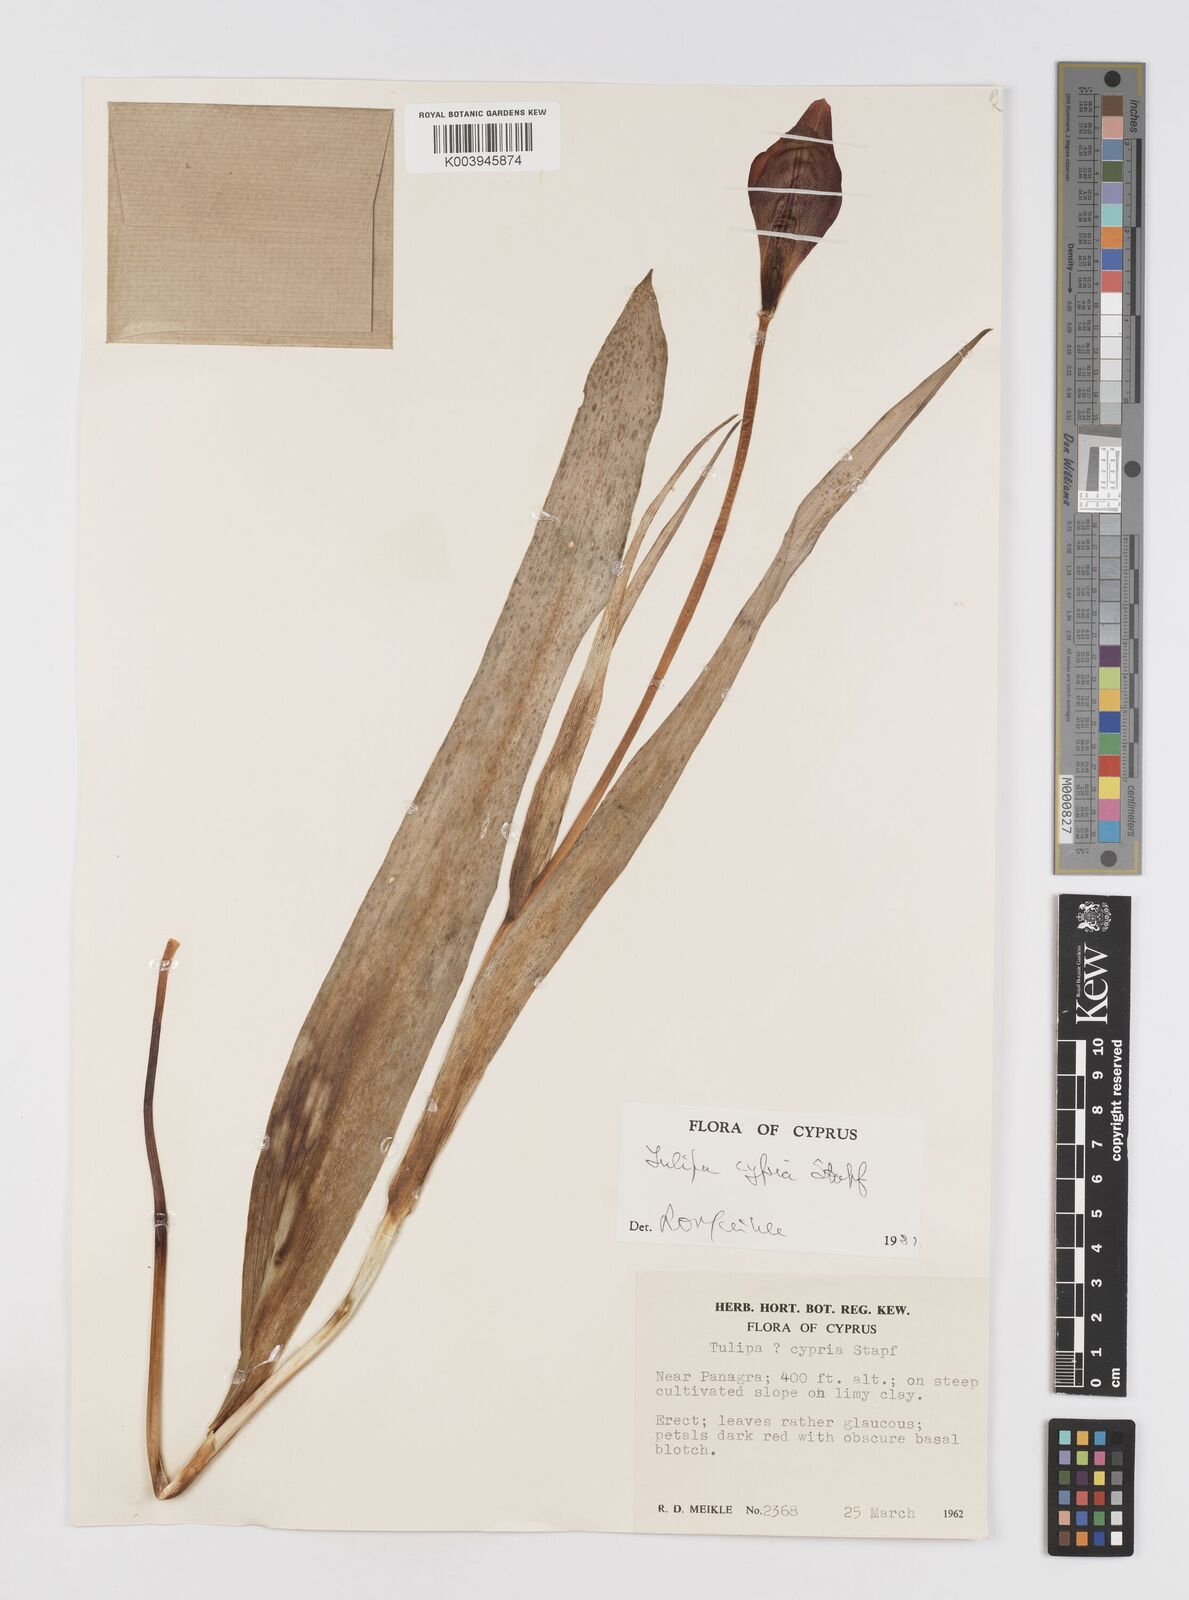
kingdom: Plantae
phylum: Tracheophyta
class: Liliopsida
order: Liliales
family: Liliaceae
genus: Tulipa
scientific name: Tulipa cypria
